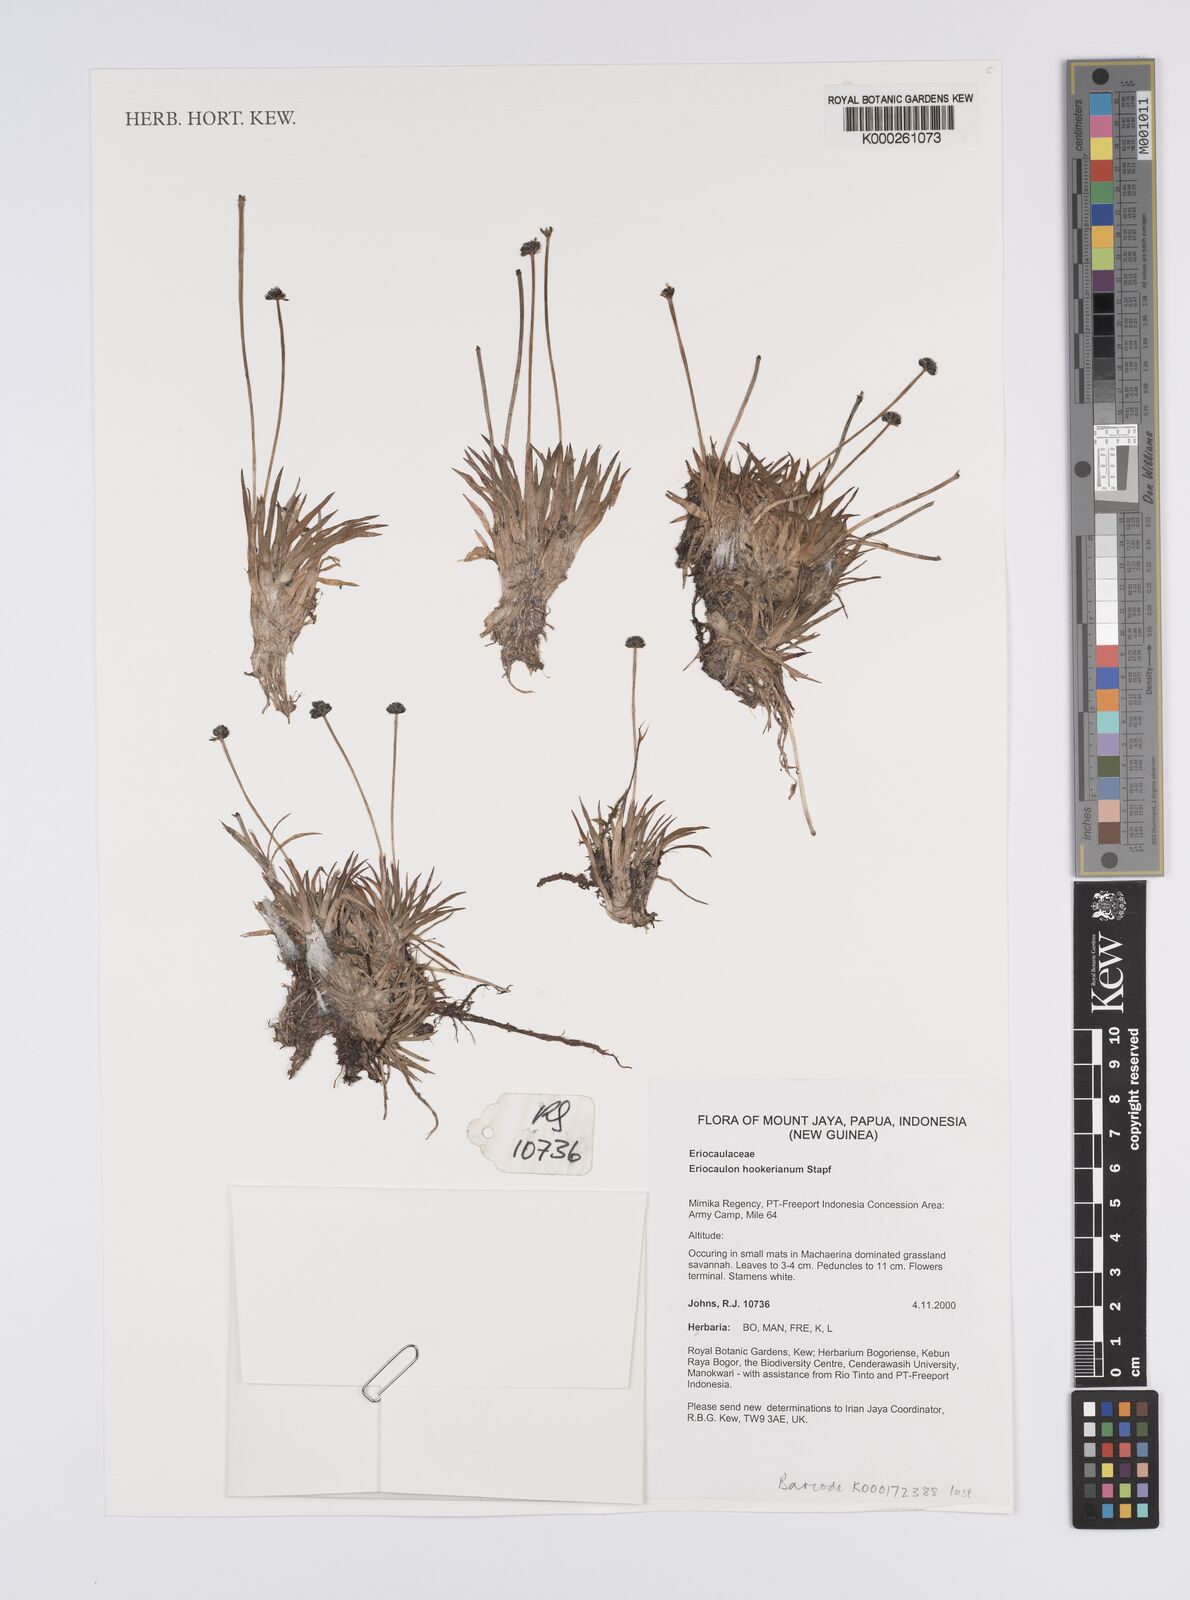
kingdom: Plantae
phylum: Tracheophyta
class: Liliopsida
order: Poales
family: Eriocaulaceae
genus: Eriocaulon
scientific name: Eriocaulon hookerianum
